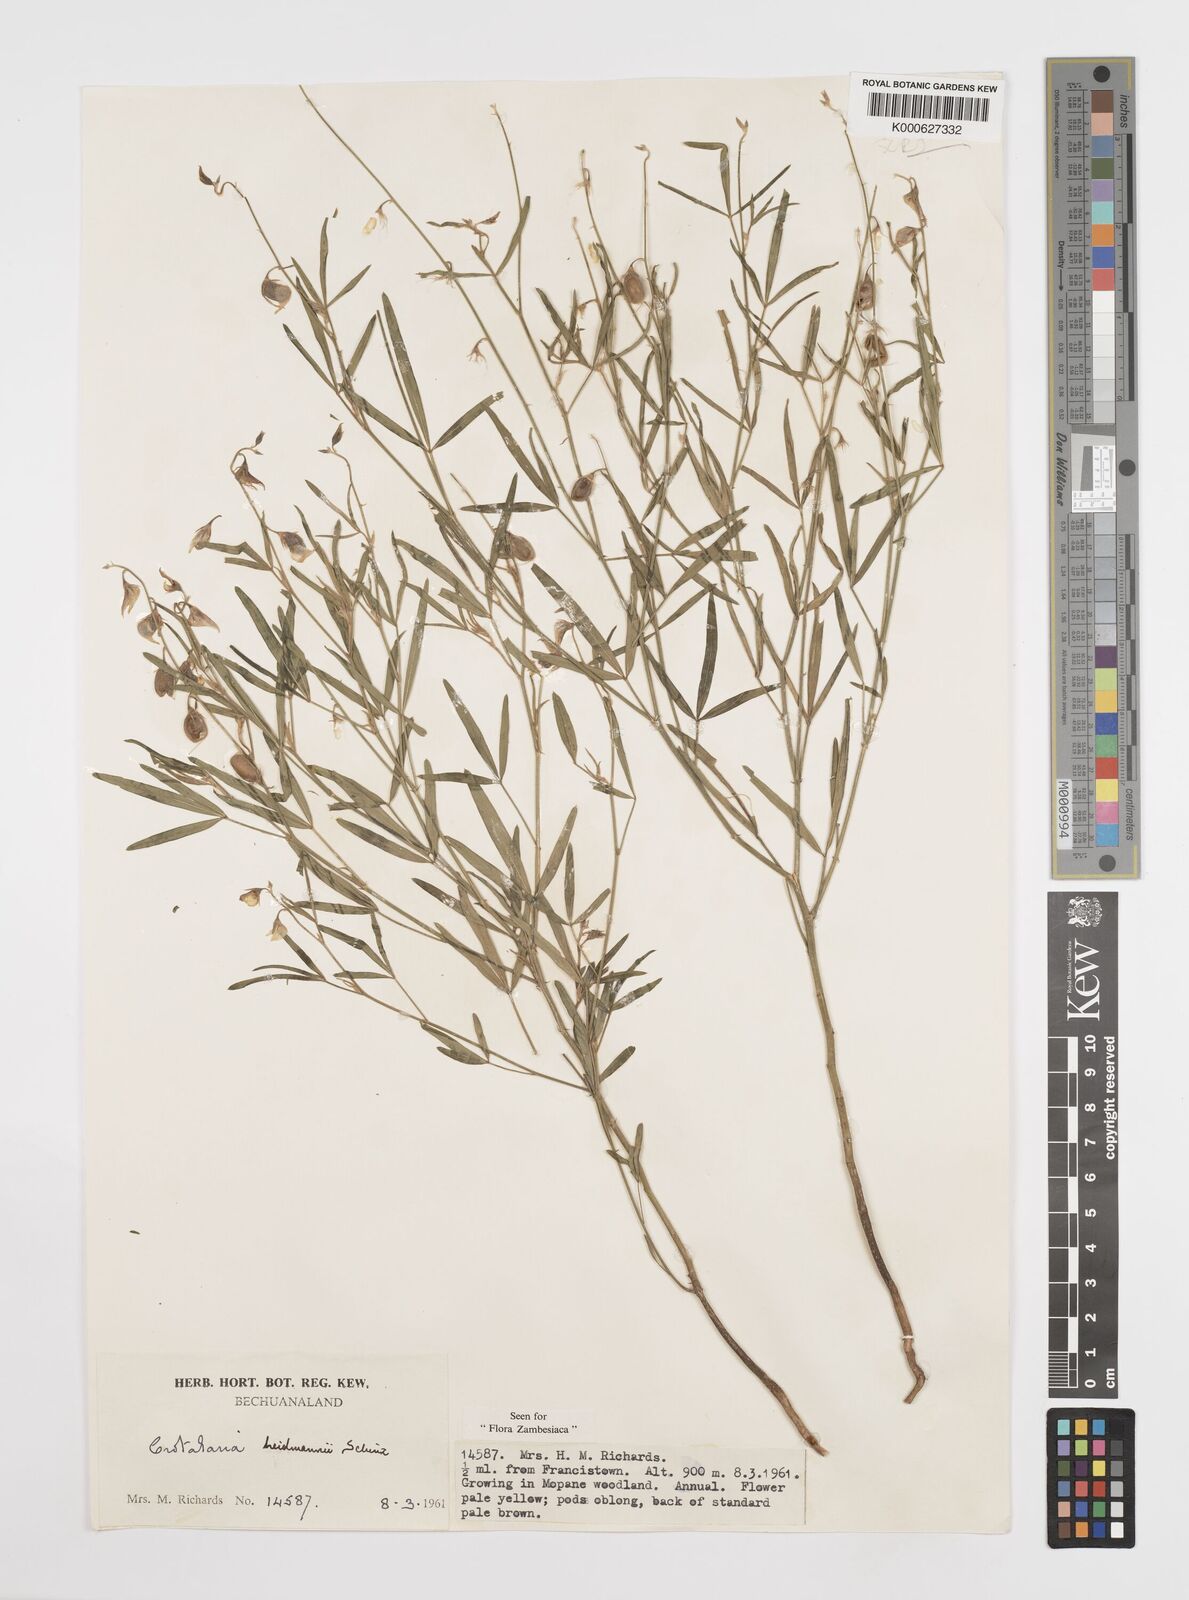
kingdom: Plantae
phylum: Tracheophyta
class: Magnoliopsida
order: Fabales
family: Fabaceae
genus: Crotalaria
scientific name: Crotalaria heidmannii
